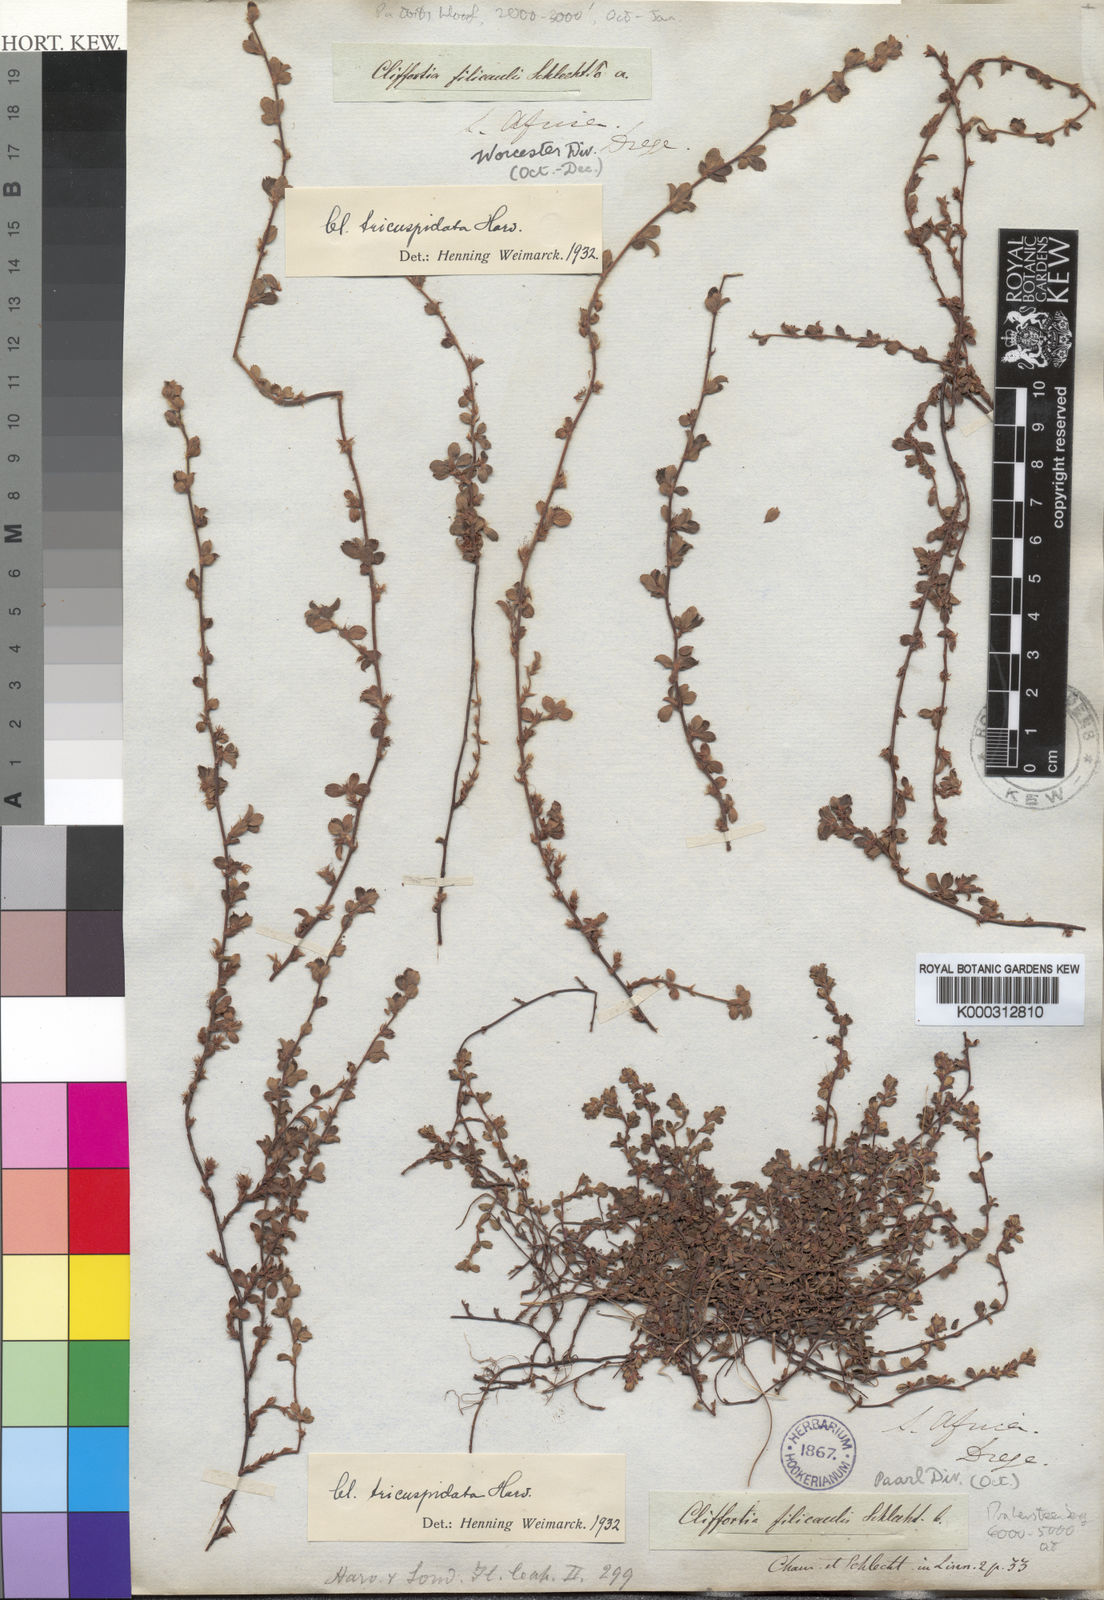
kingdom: Plantae
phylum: Tracheophyta
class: Magnoliopsida
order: Rosales
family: Rosaceae
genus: Cliffortia
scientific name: Cliffortia filicaulis
